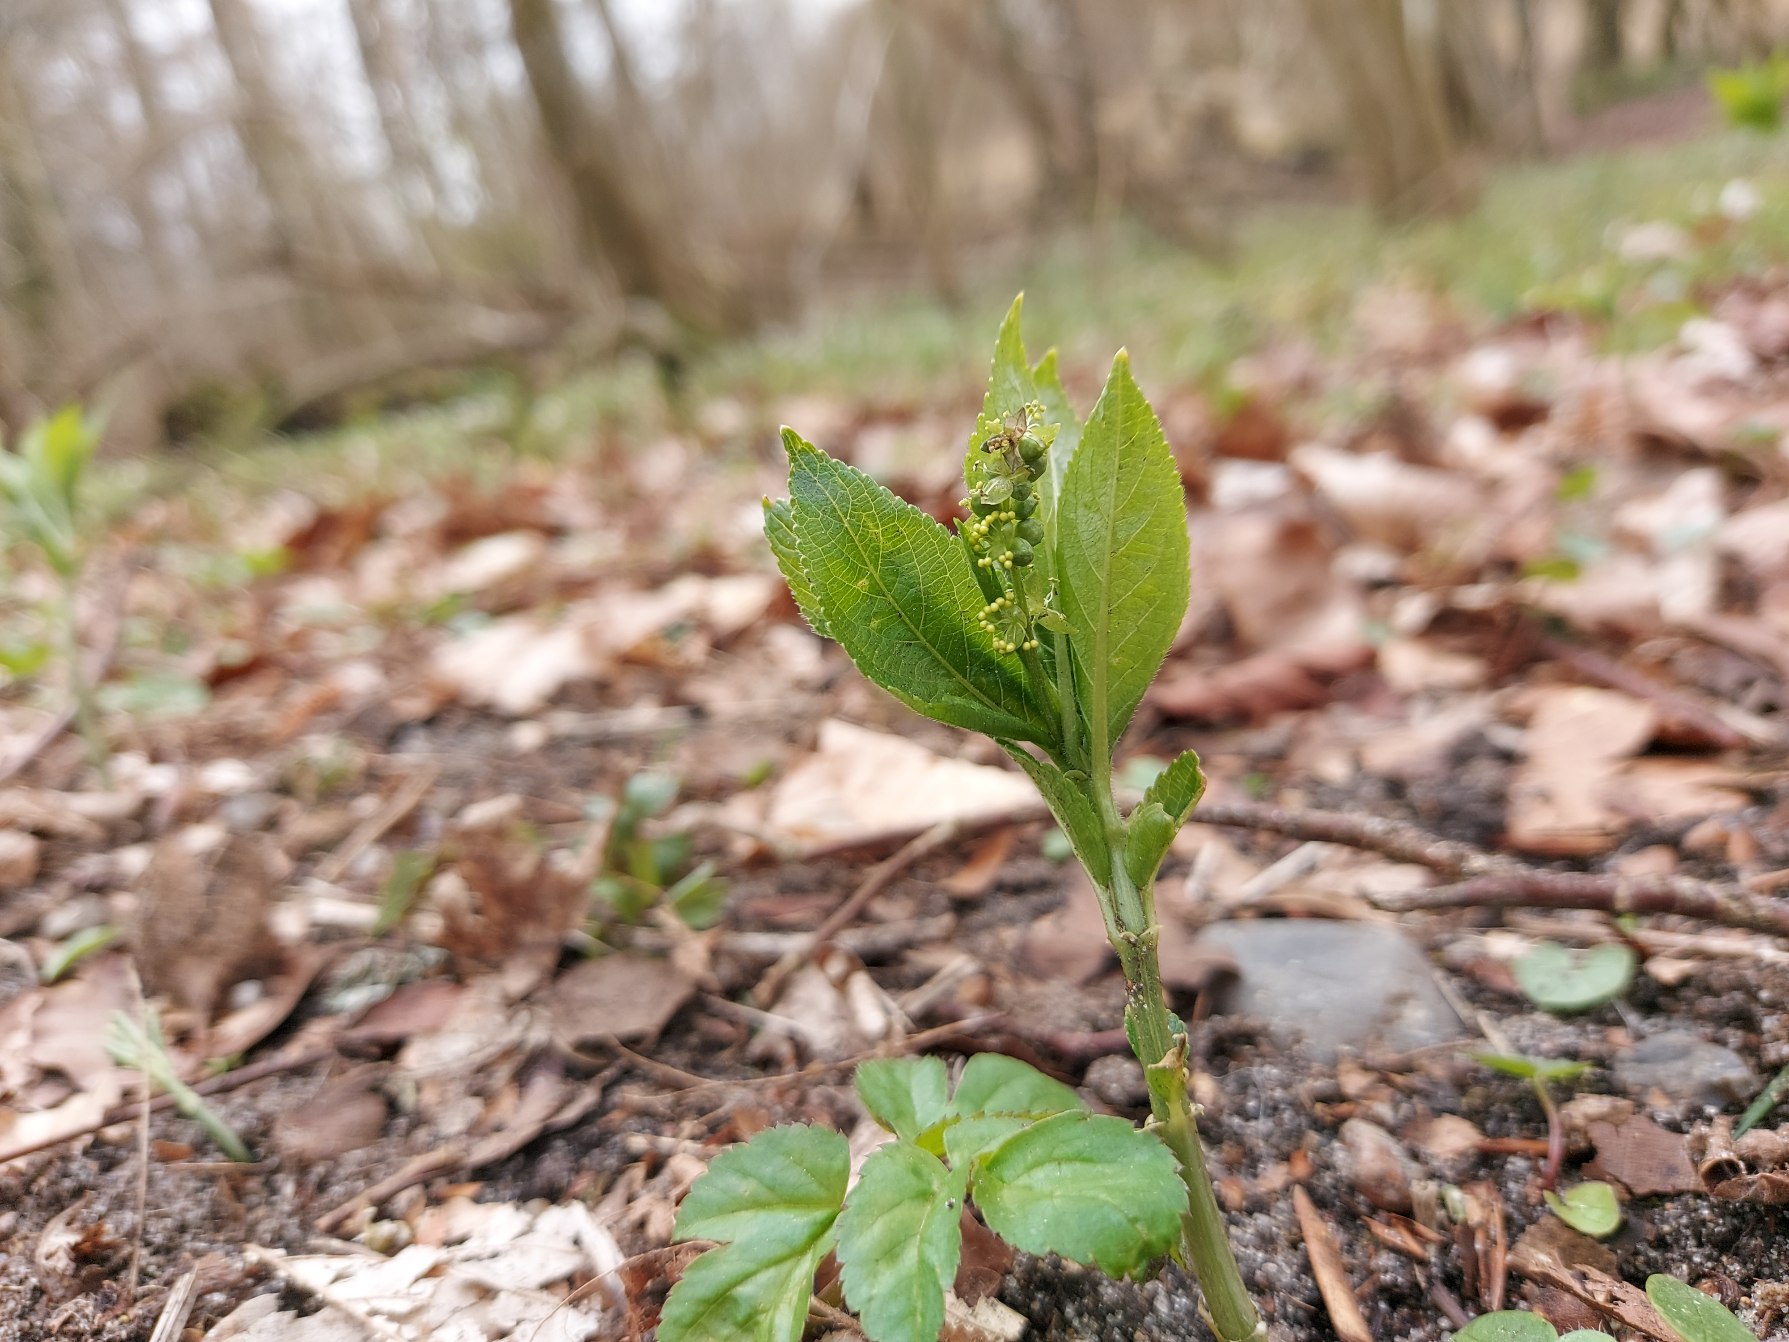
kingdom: Plantae
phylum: Tracheophyta
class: Magnoliopsida
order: Malpighiales
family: Euphorbiaceae
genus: Mercurialis
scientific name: Mercurialis perennis
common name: Almindelig bingelurt
